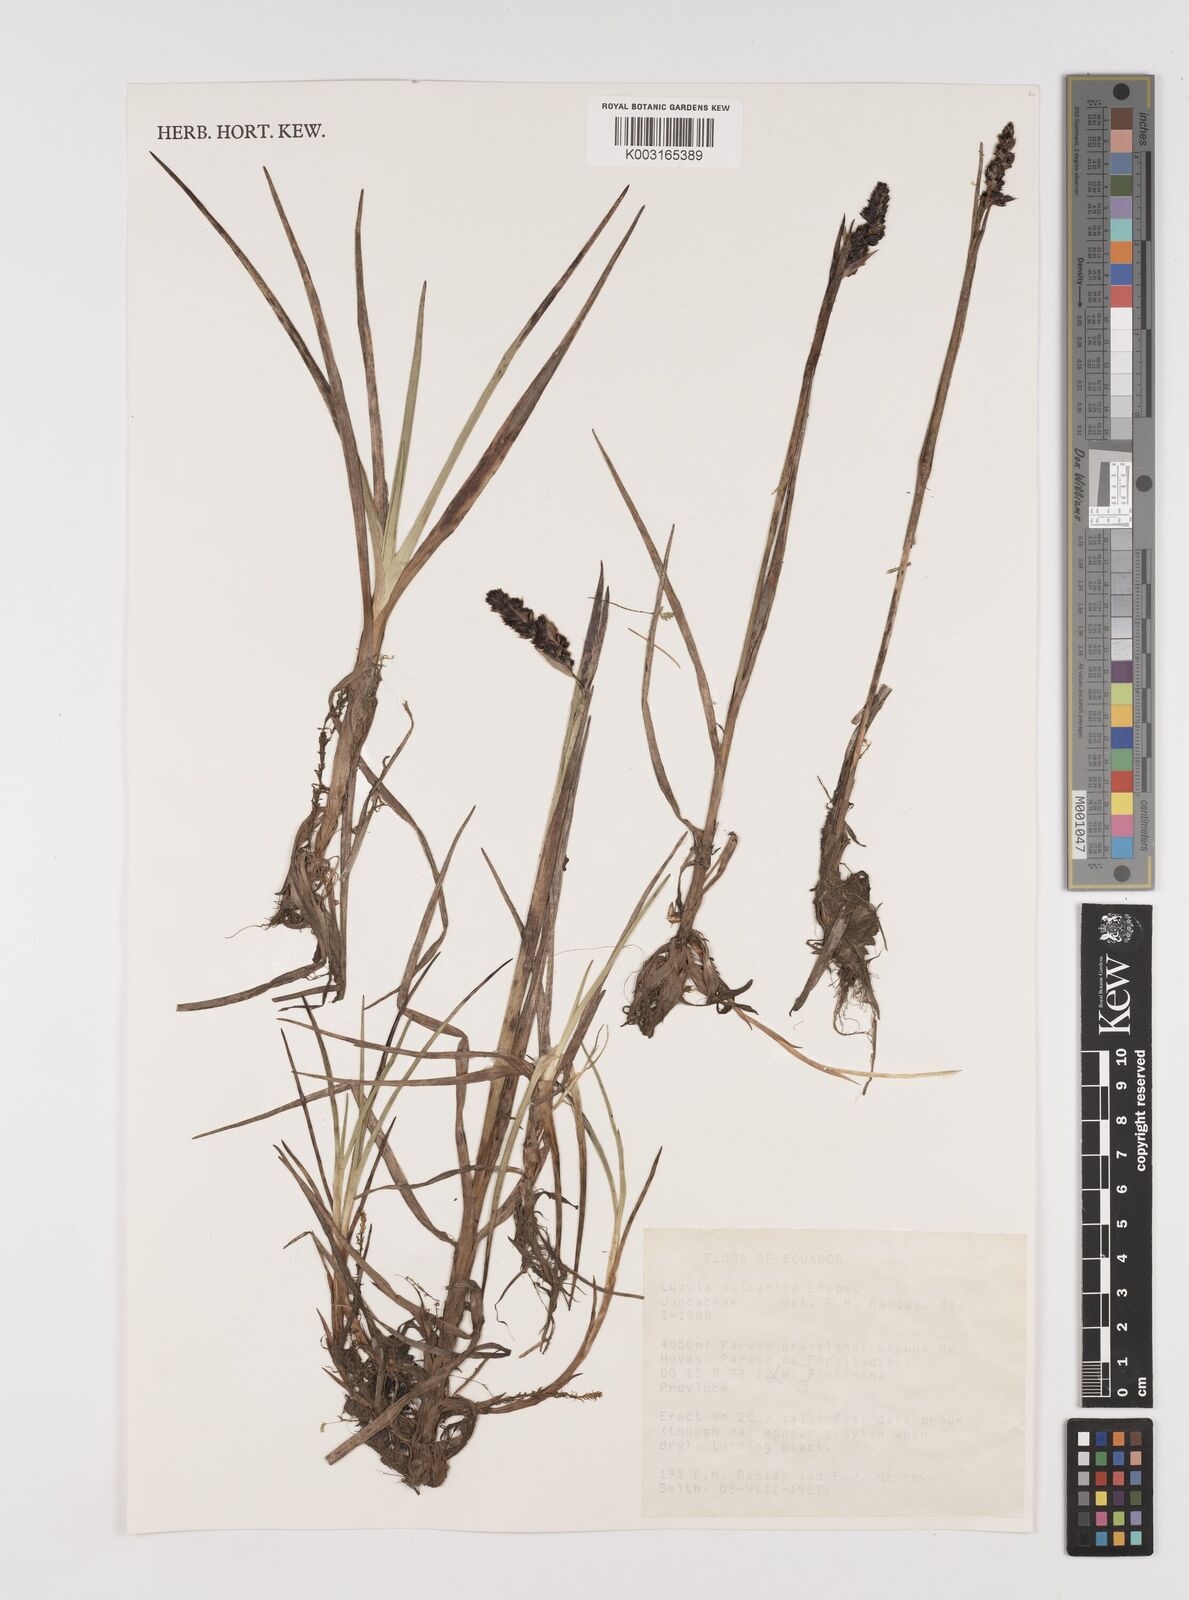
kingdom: Plantae
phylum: Tracheophyta
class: Liliopsida
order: Poales
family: Juncaceae
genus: Luzula
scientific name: Luzula vulcanica
